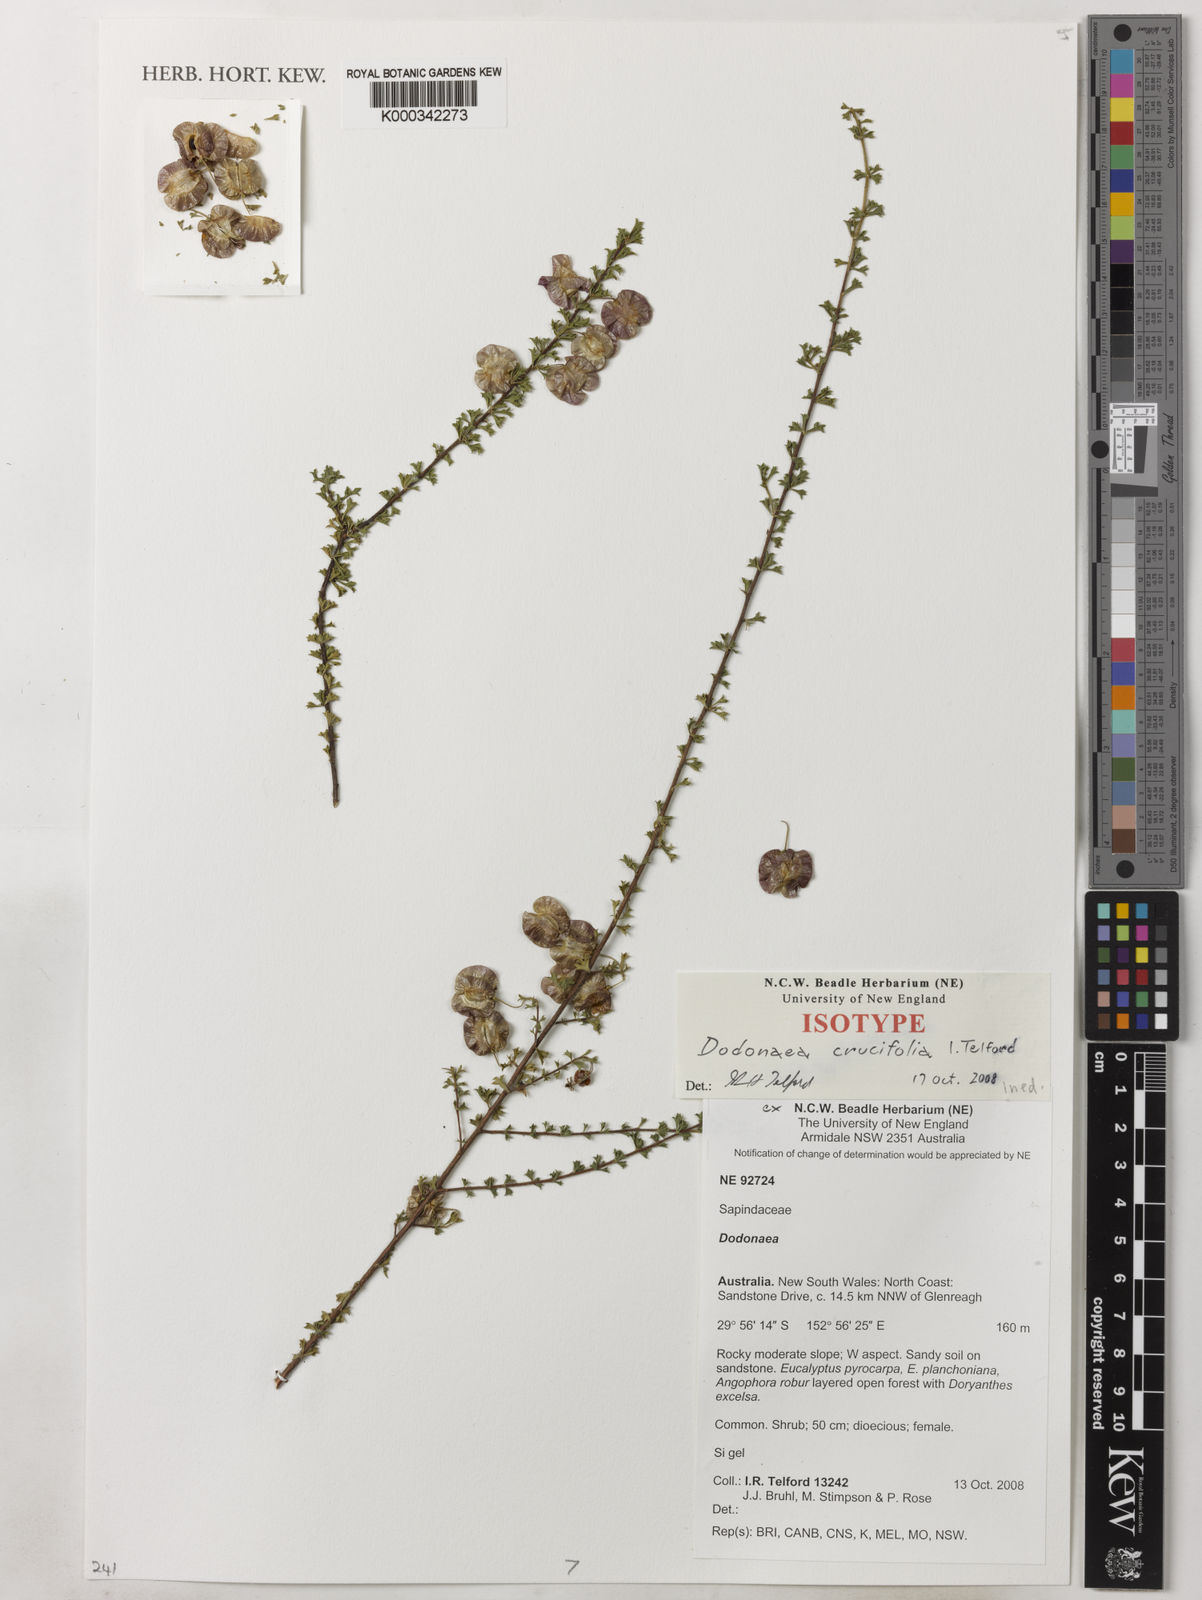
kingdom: Plantae
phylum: Tracheophyta
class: Magnoliopsida
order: Sapindales
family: Sapindaceae
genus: Dodonaea
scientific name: Dodonaea
